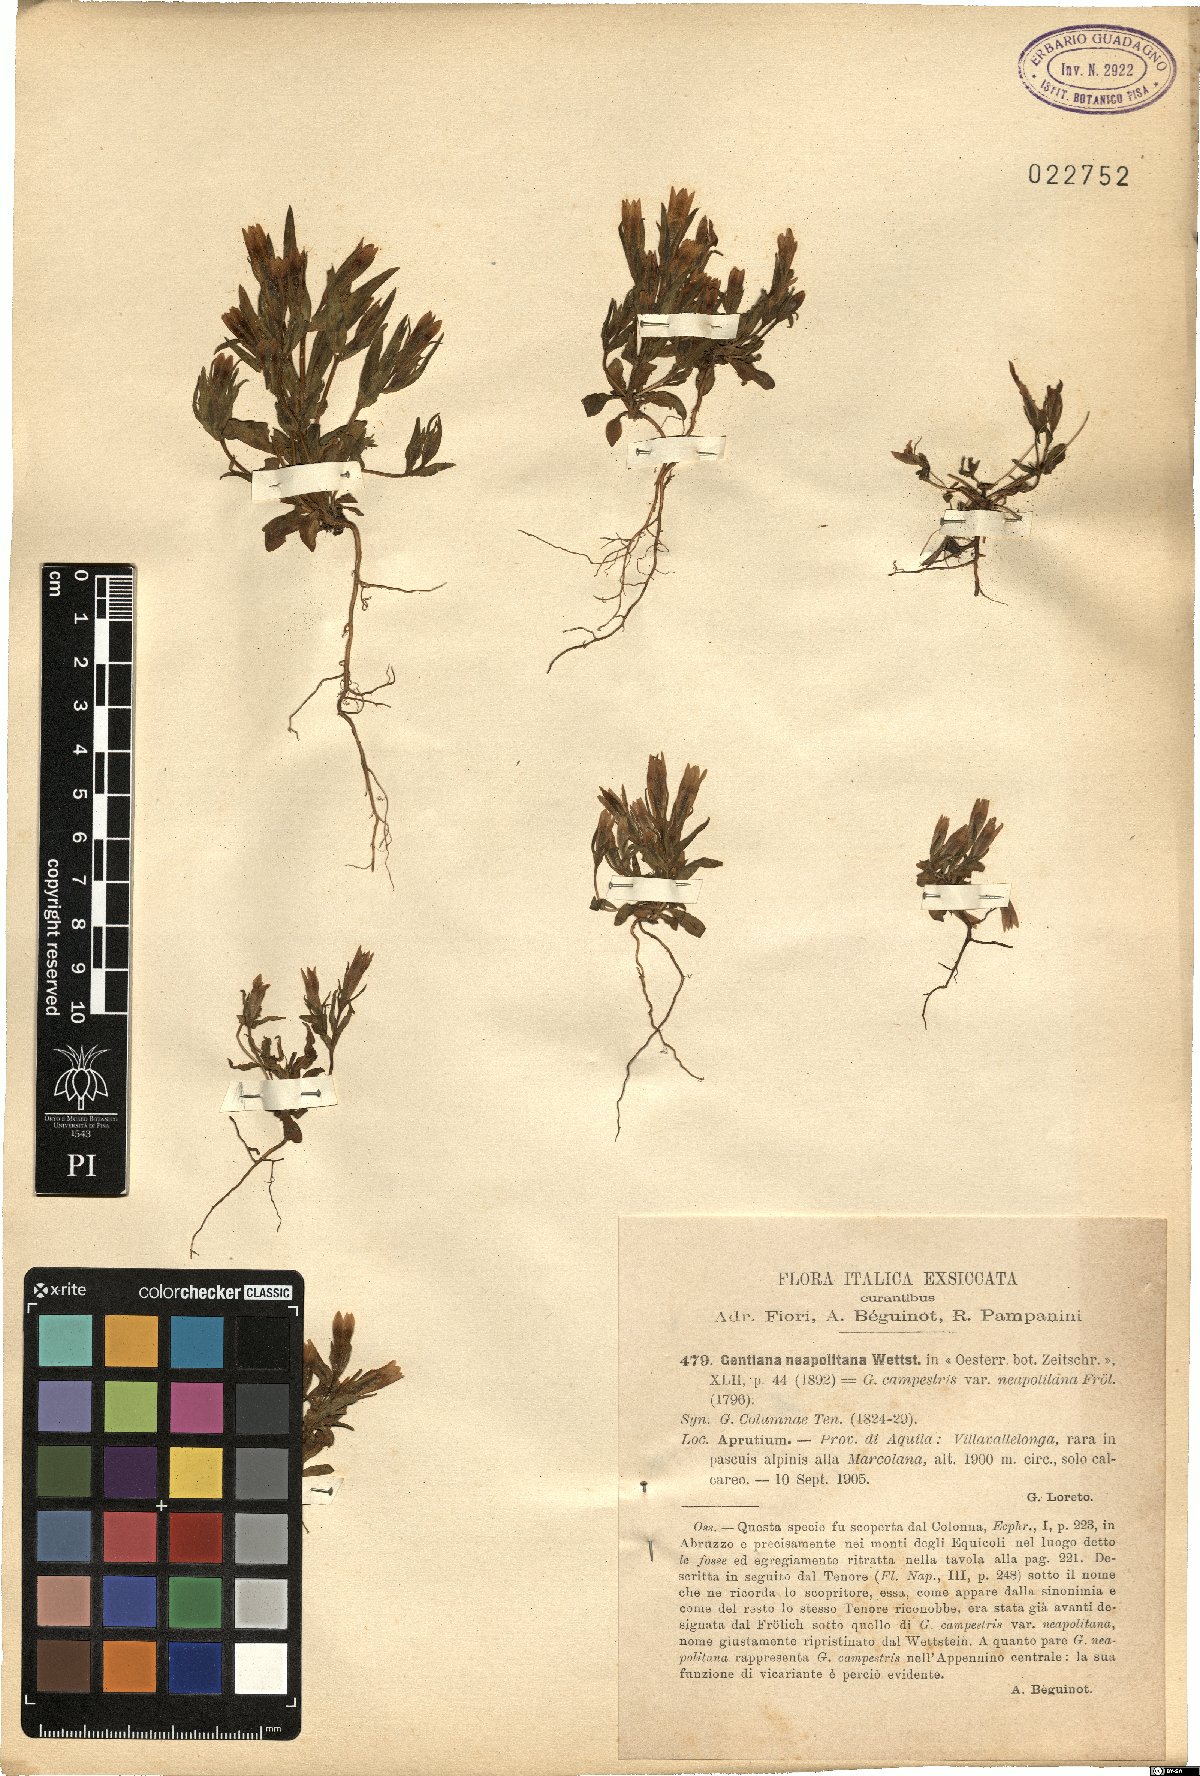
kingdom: Plantae
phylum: Tracheophyta
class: Magnoliopsida
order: Gentianales
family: Gentianaceae
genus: Gentianella
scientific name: Gentianella columnae
